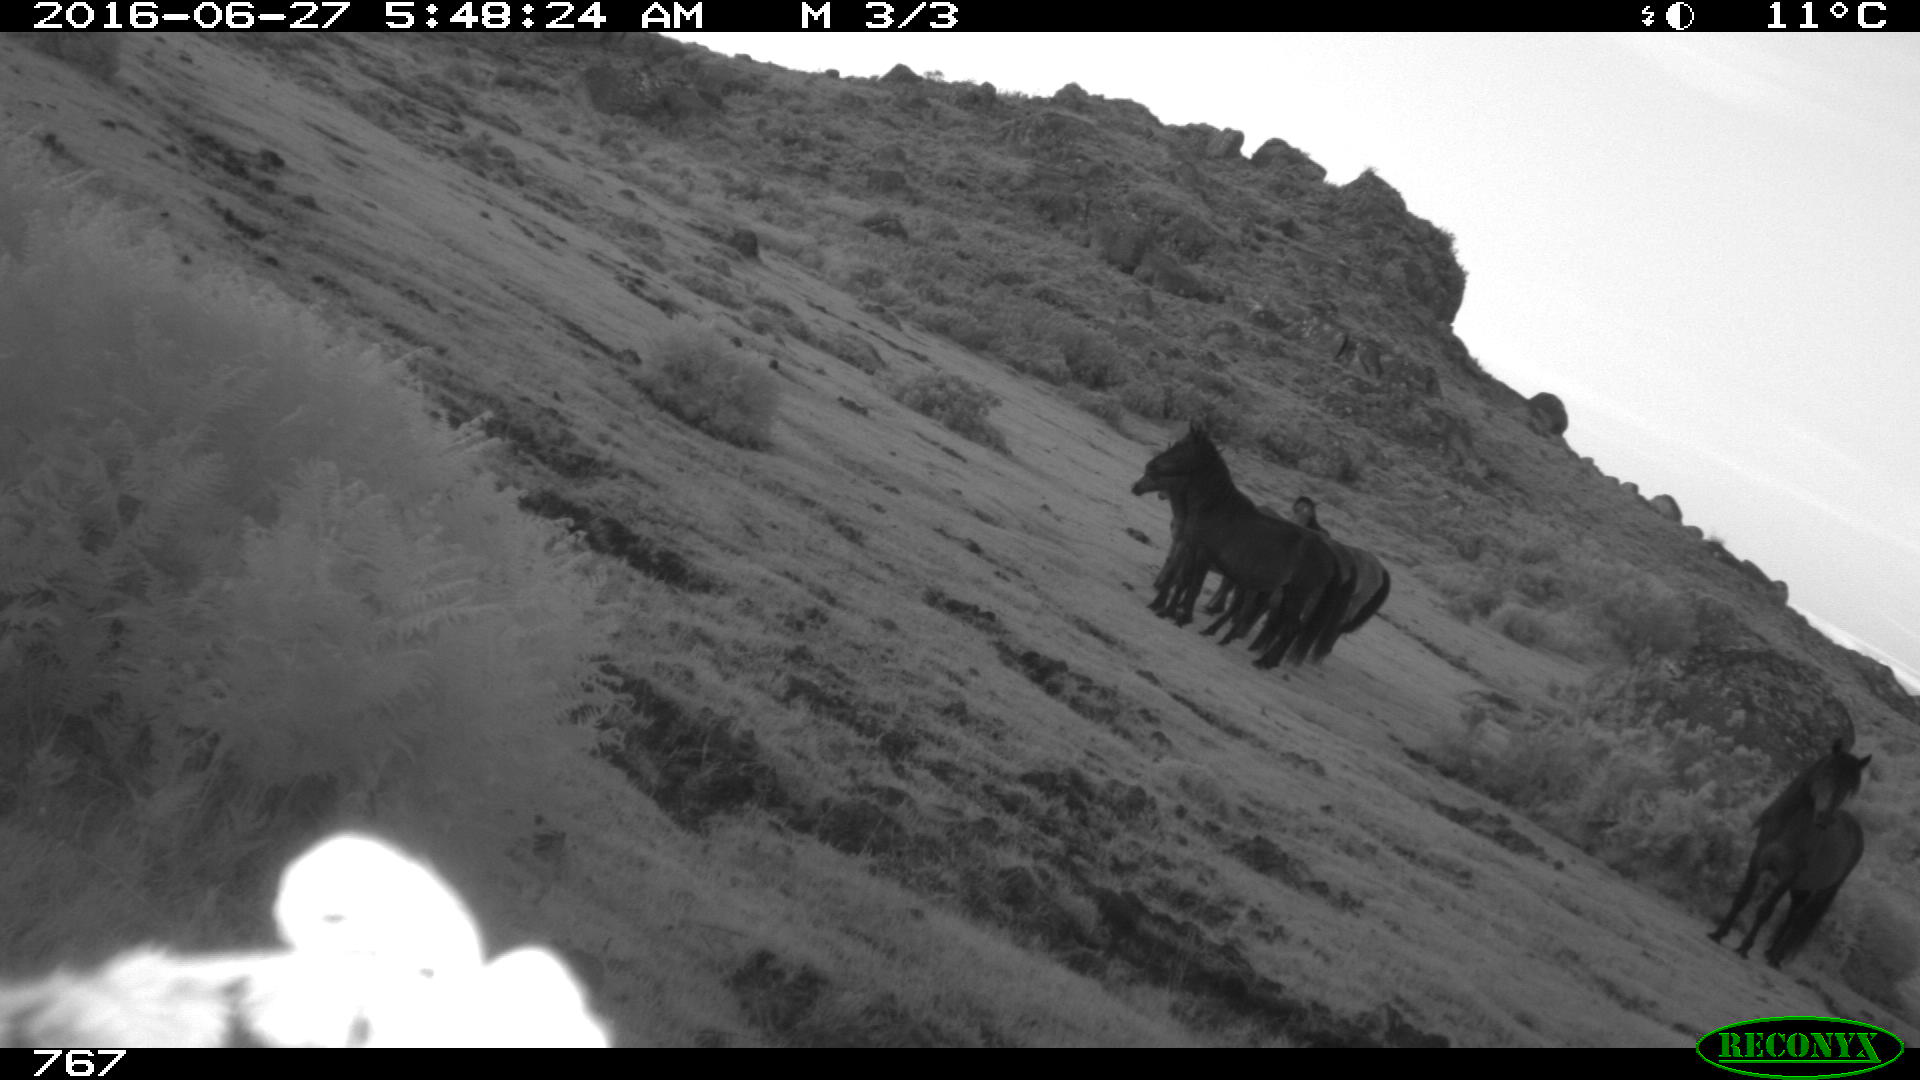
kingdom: Animalia
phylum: Chordata
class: Mammalia
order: Perissodactyla
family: Equidae
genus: Equus
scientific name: Equus caballus
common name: Horse
